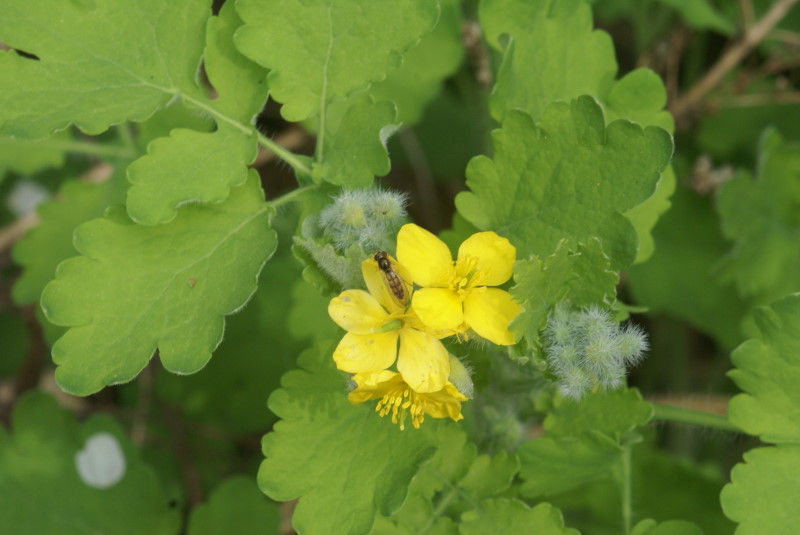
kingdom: Plantae
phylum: Tracheophyta
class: Magnoliopsida
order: Ranunculales
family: Papaveraceae
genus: Chelidonium
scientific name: Chelidonium majus
